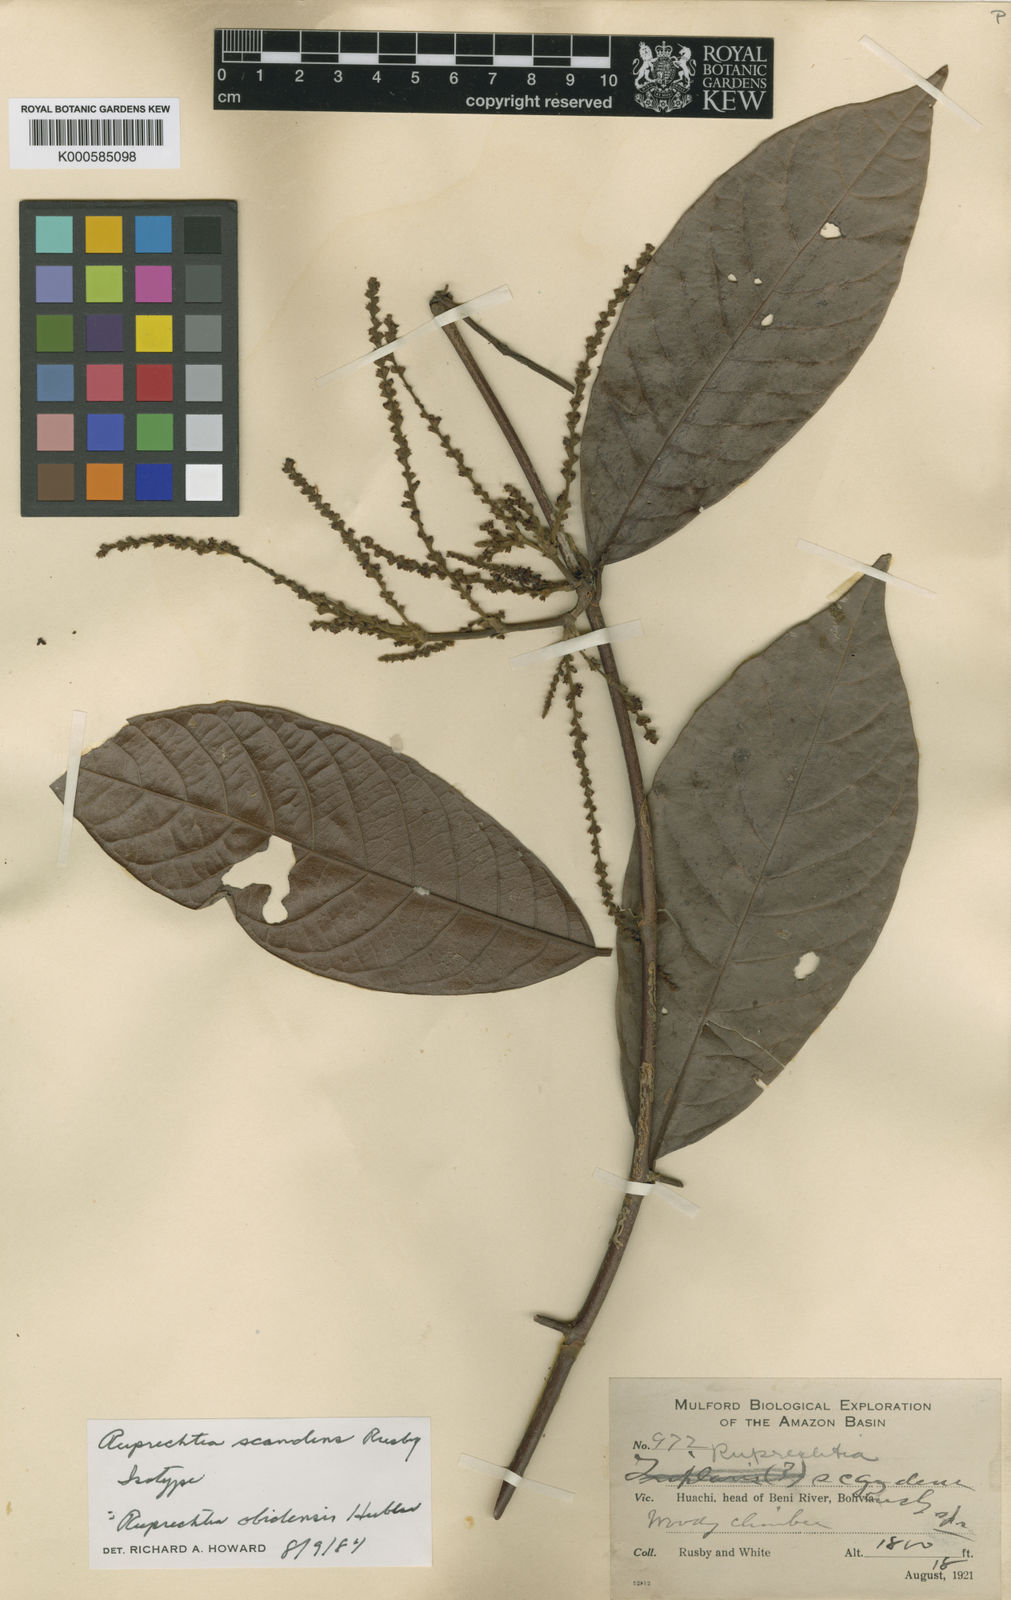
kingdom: Plantae
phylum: Tracheophyta
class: Magnoliopsida
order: Caryophyllales
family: Polygonaceae
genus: Magoniella
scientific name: Magoniella obidensis
